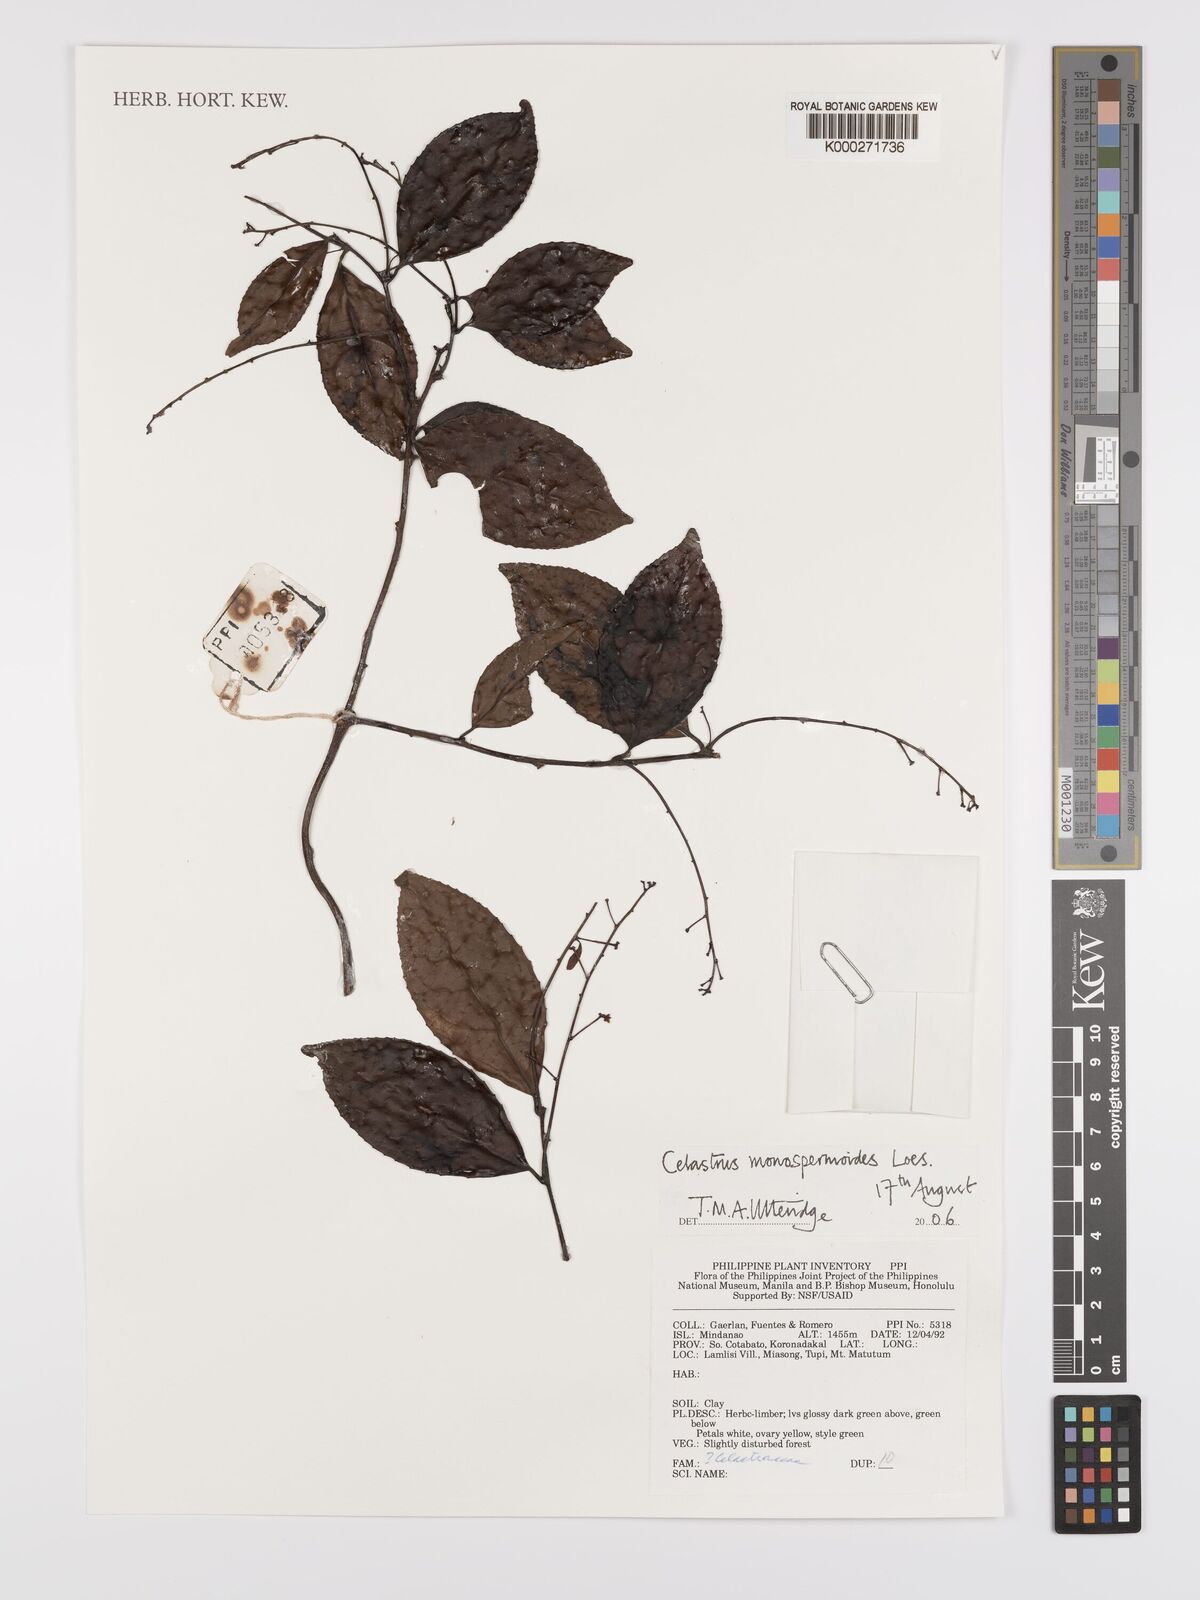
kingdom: Plantae
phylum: Tracheophyta
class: Magnoliopsida
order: Celastrales
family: Celastraceae
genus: Celastrus
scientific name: Celastrus monospermoides
